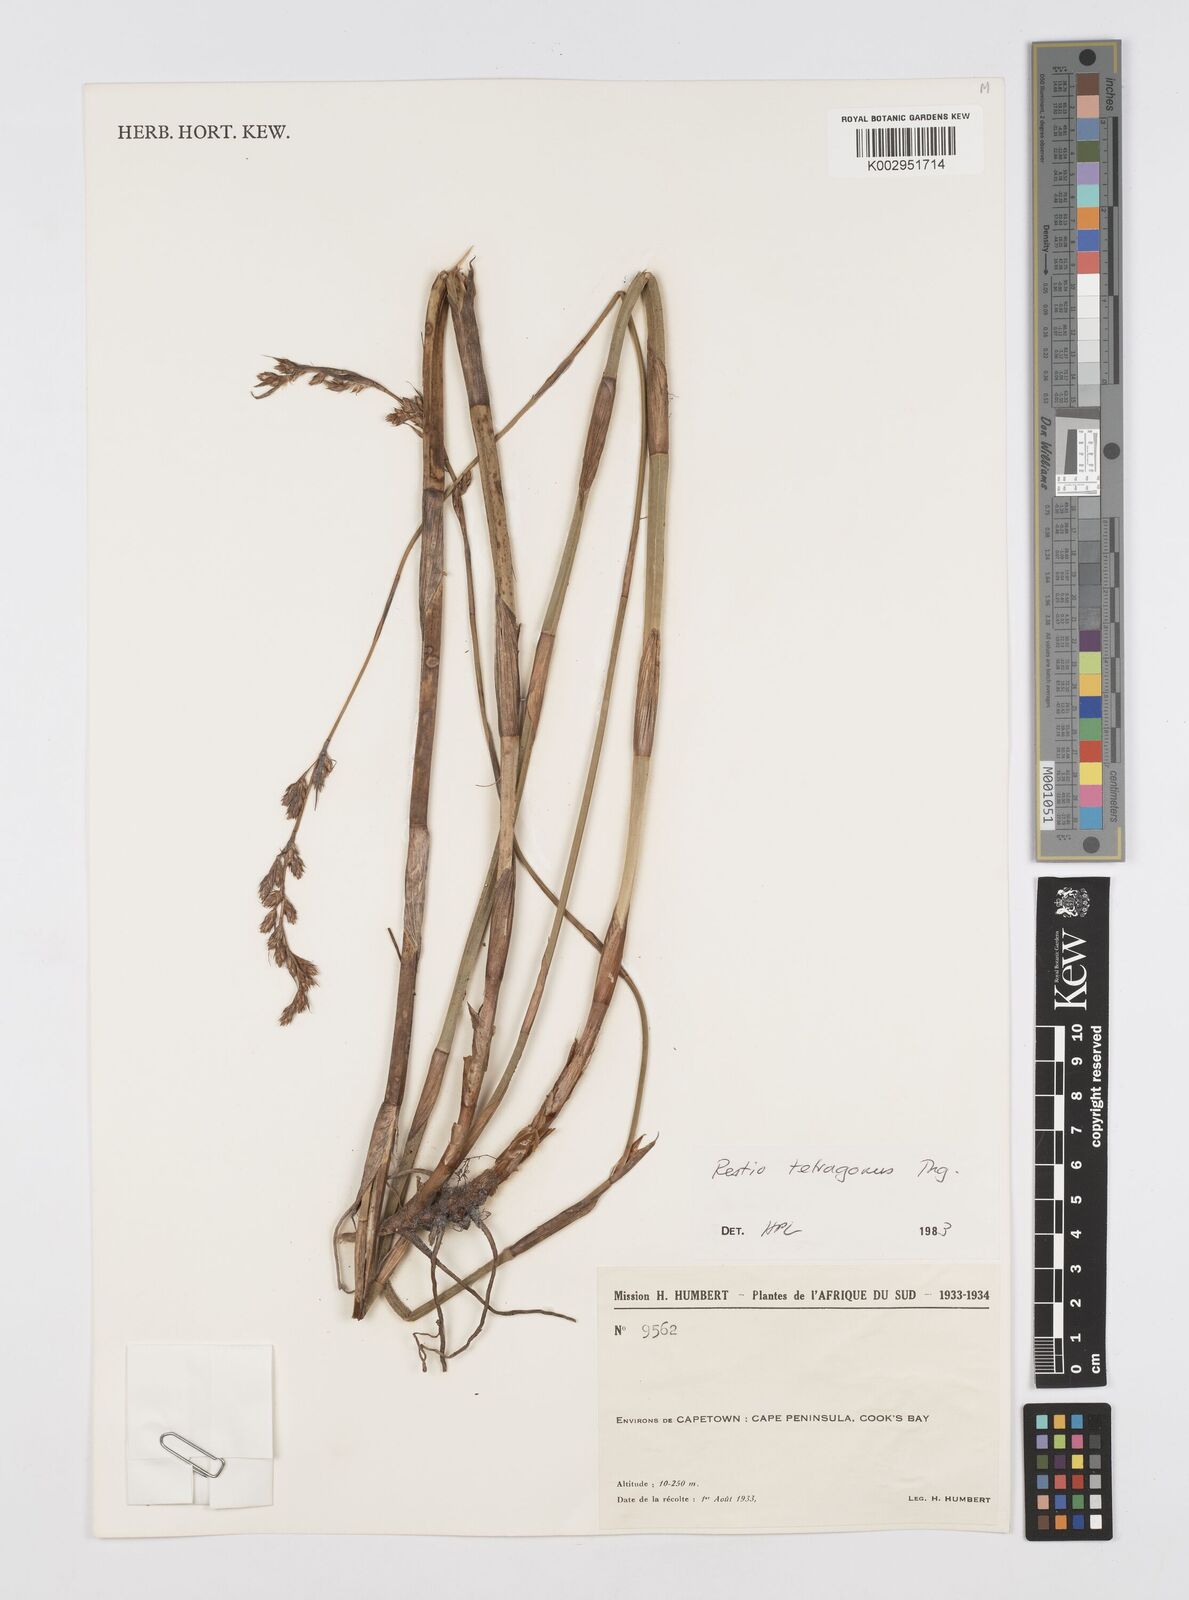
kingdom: Plantae
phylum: Tracheophyta
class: Liliopsida
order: Poales
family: Restionaceae
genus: Restio
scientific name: Restio tetragonus
